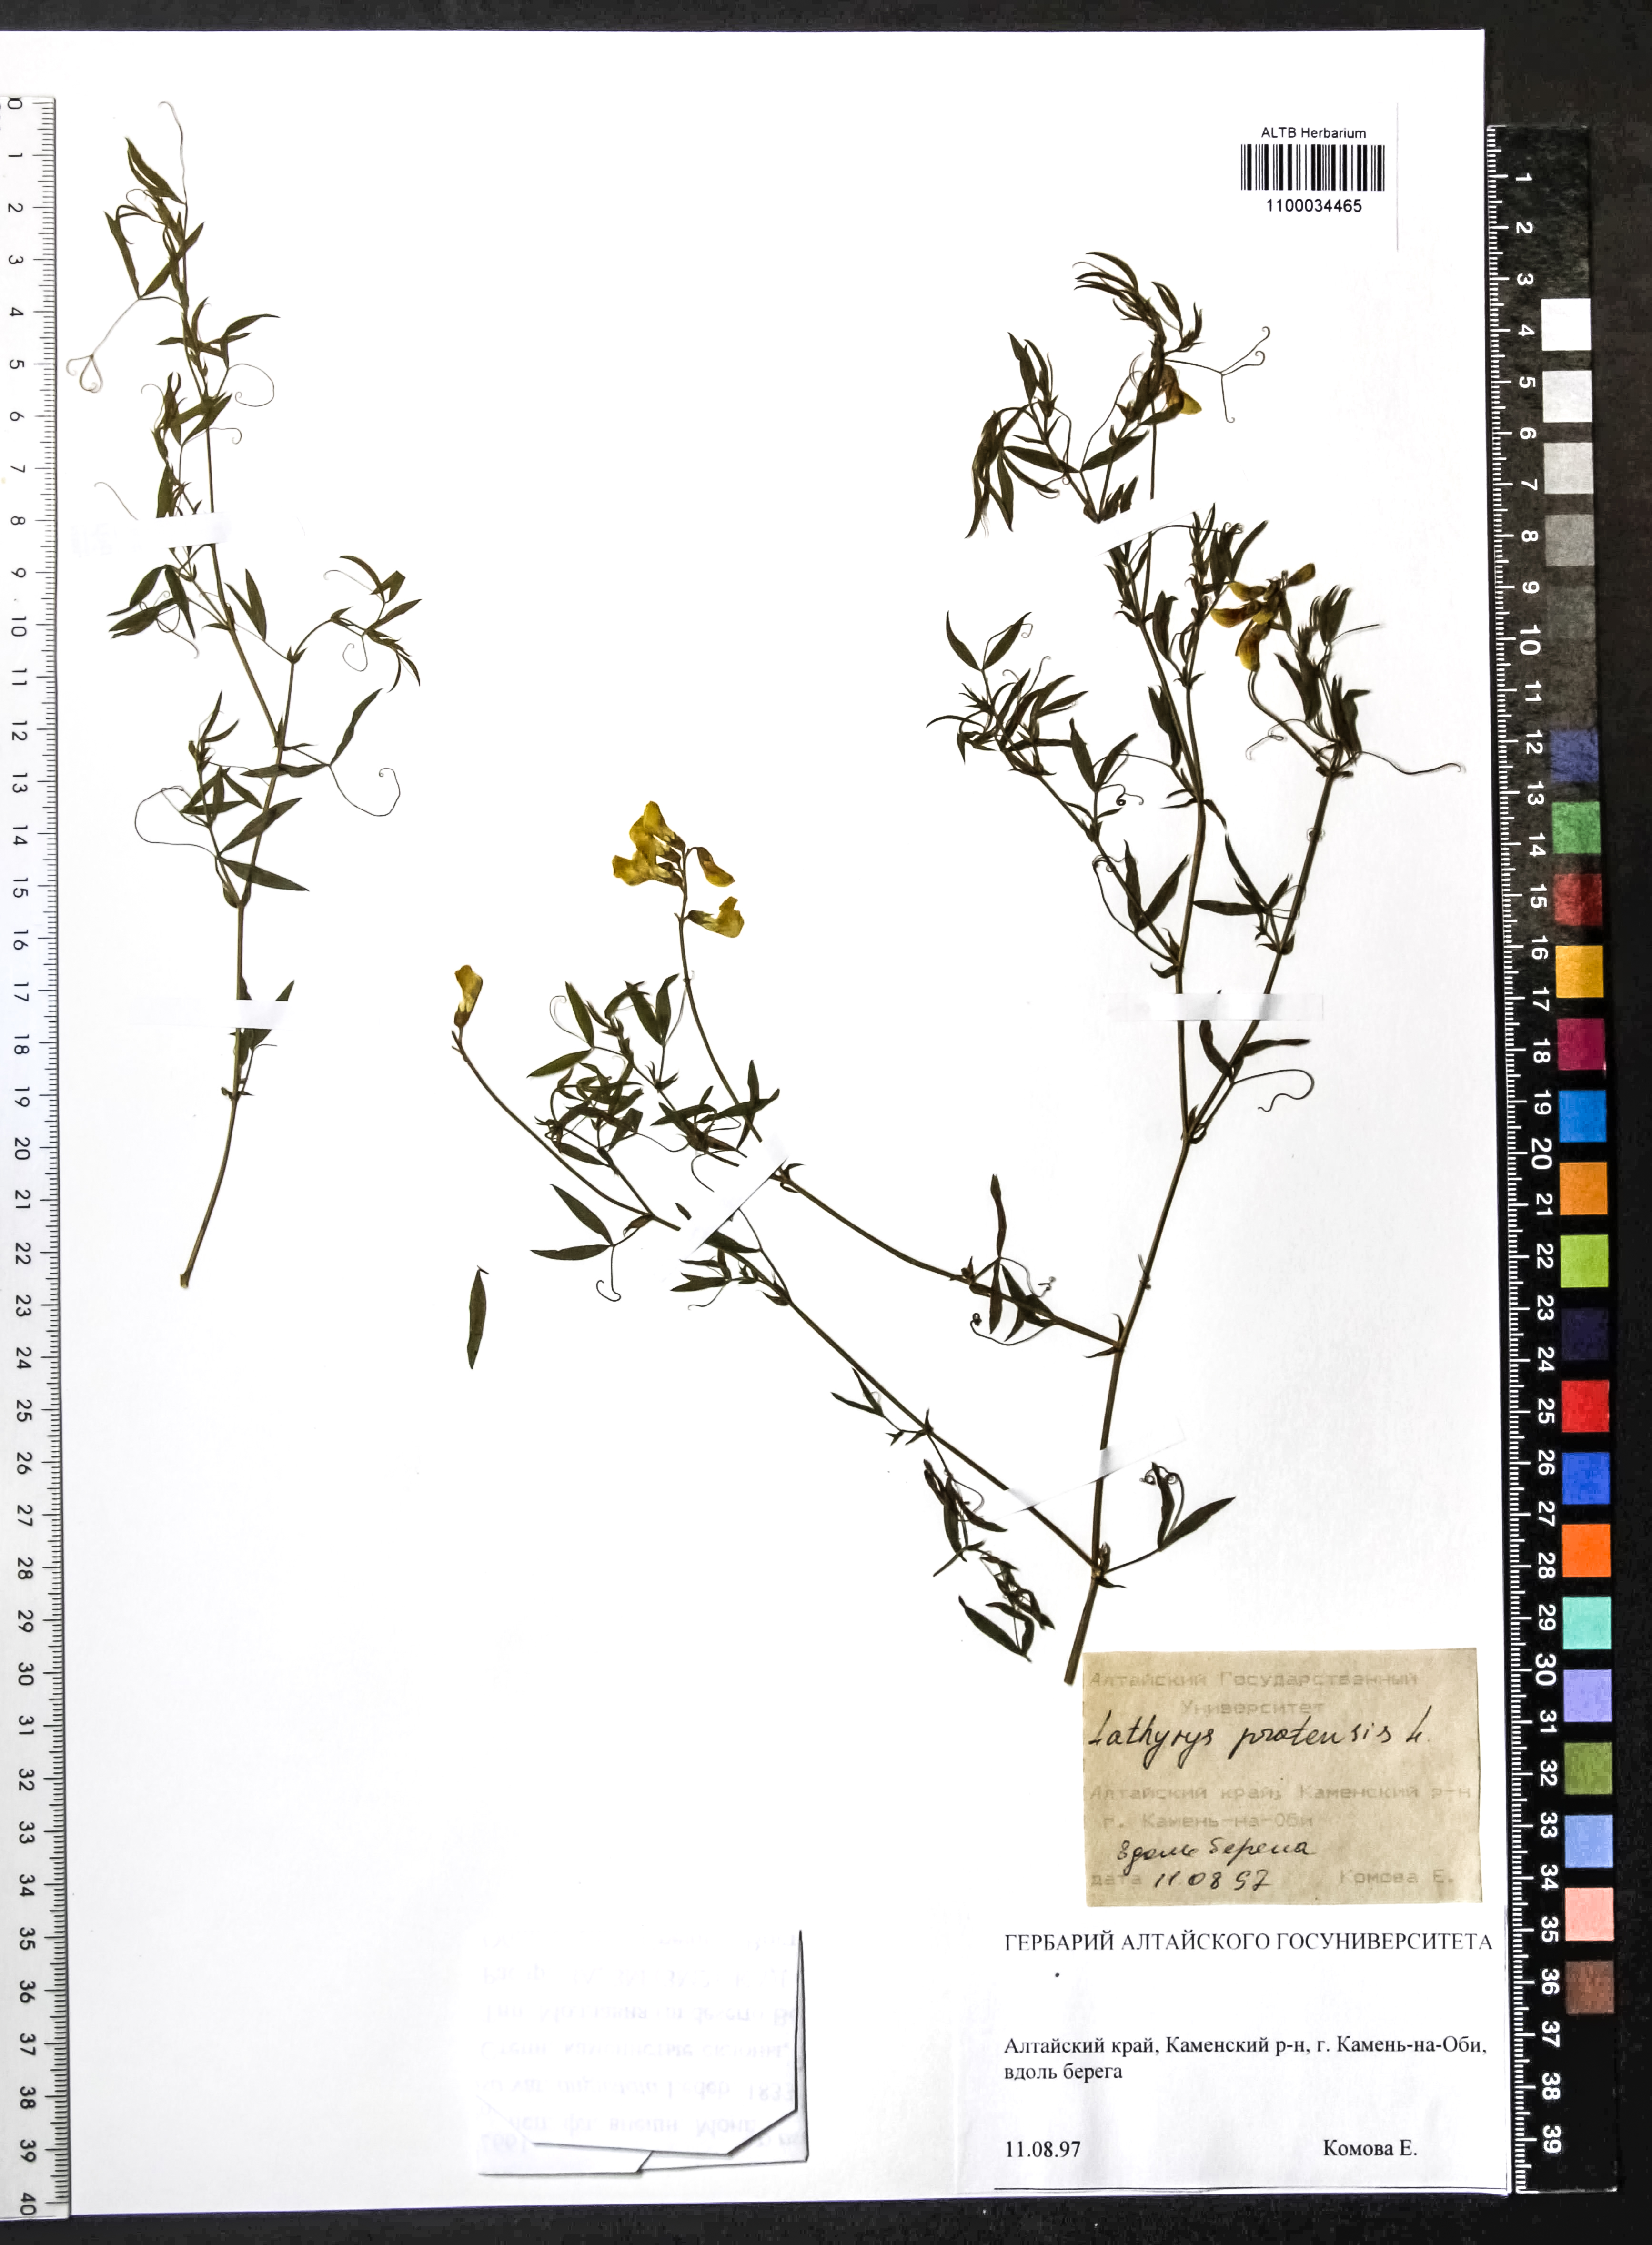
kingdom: Plantae
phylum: Tracheophyta
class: Magnoliopsida
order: Fabales
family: Fabaceae
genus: Lathyrus
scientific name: Lathyrus pratensis
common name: Meadow vetchling
